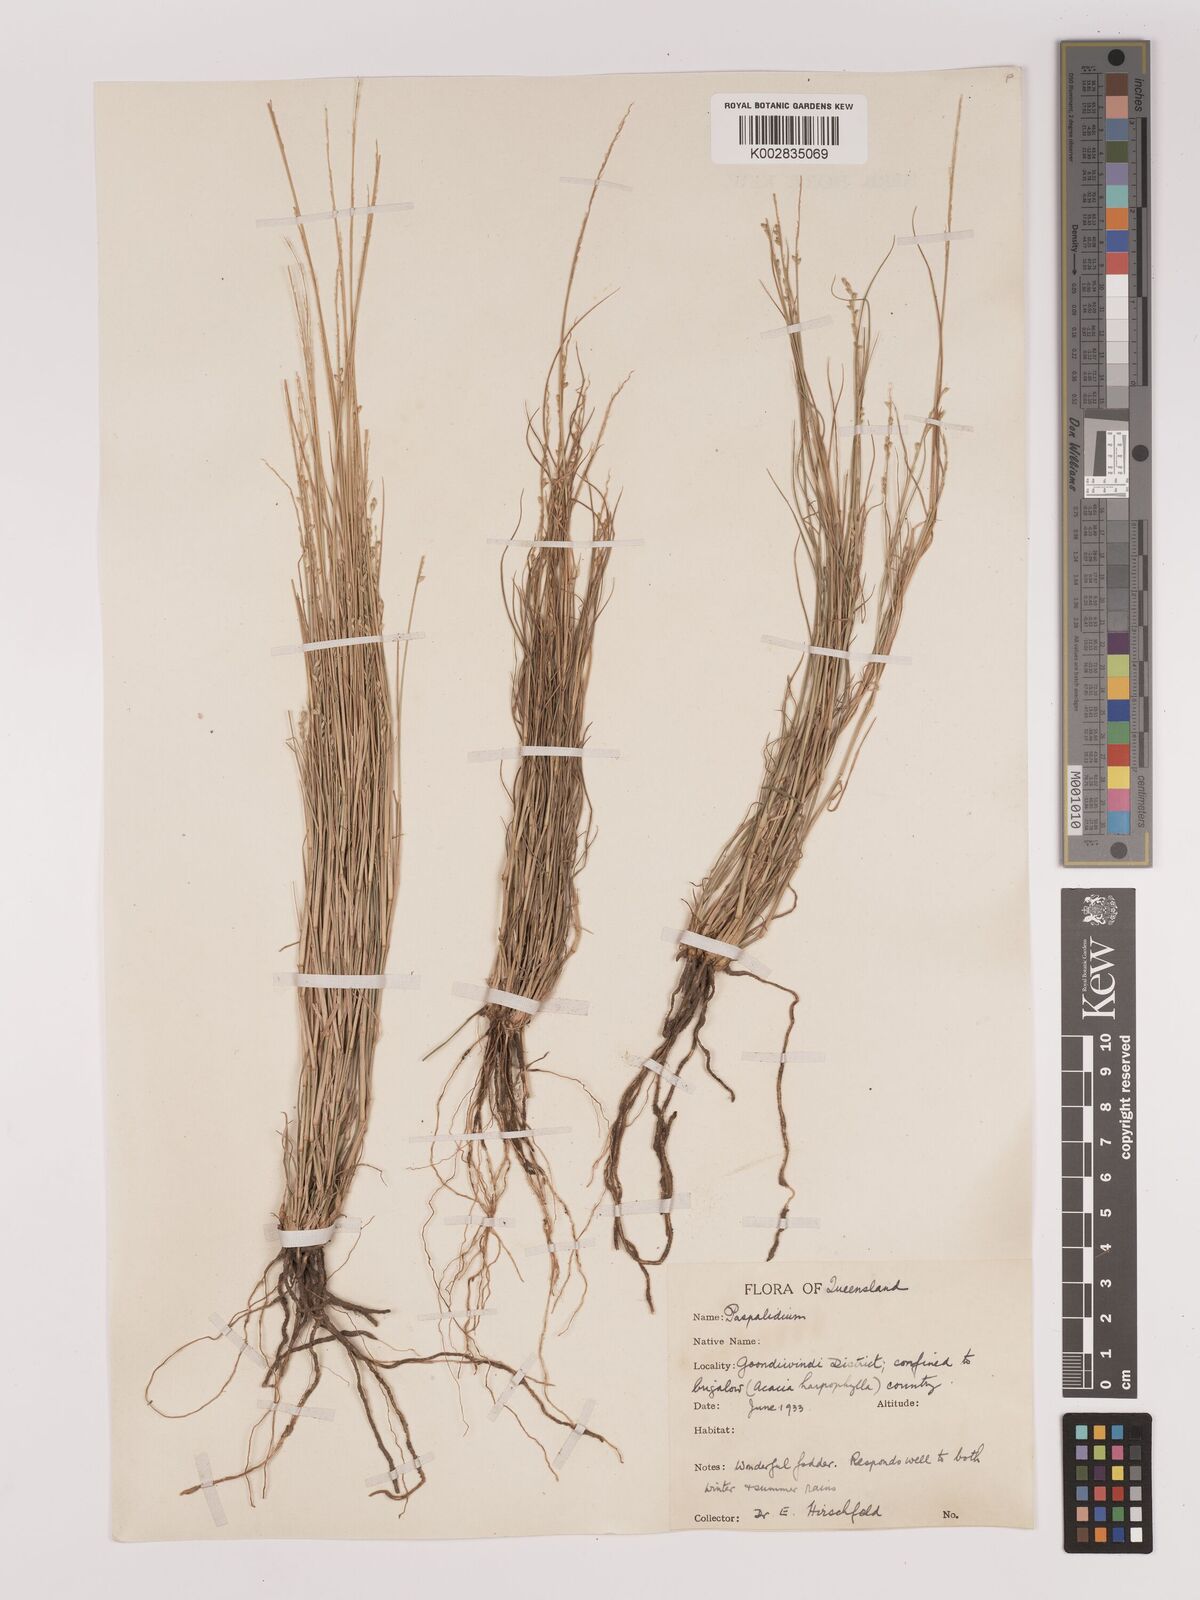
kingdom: Plantae
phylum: Tracheophyta
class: Liliopsida
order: Poales
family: Poaceae
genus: Setaria
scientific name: Setaria
